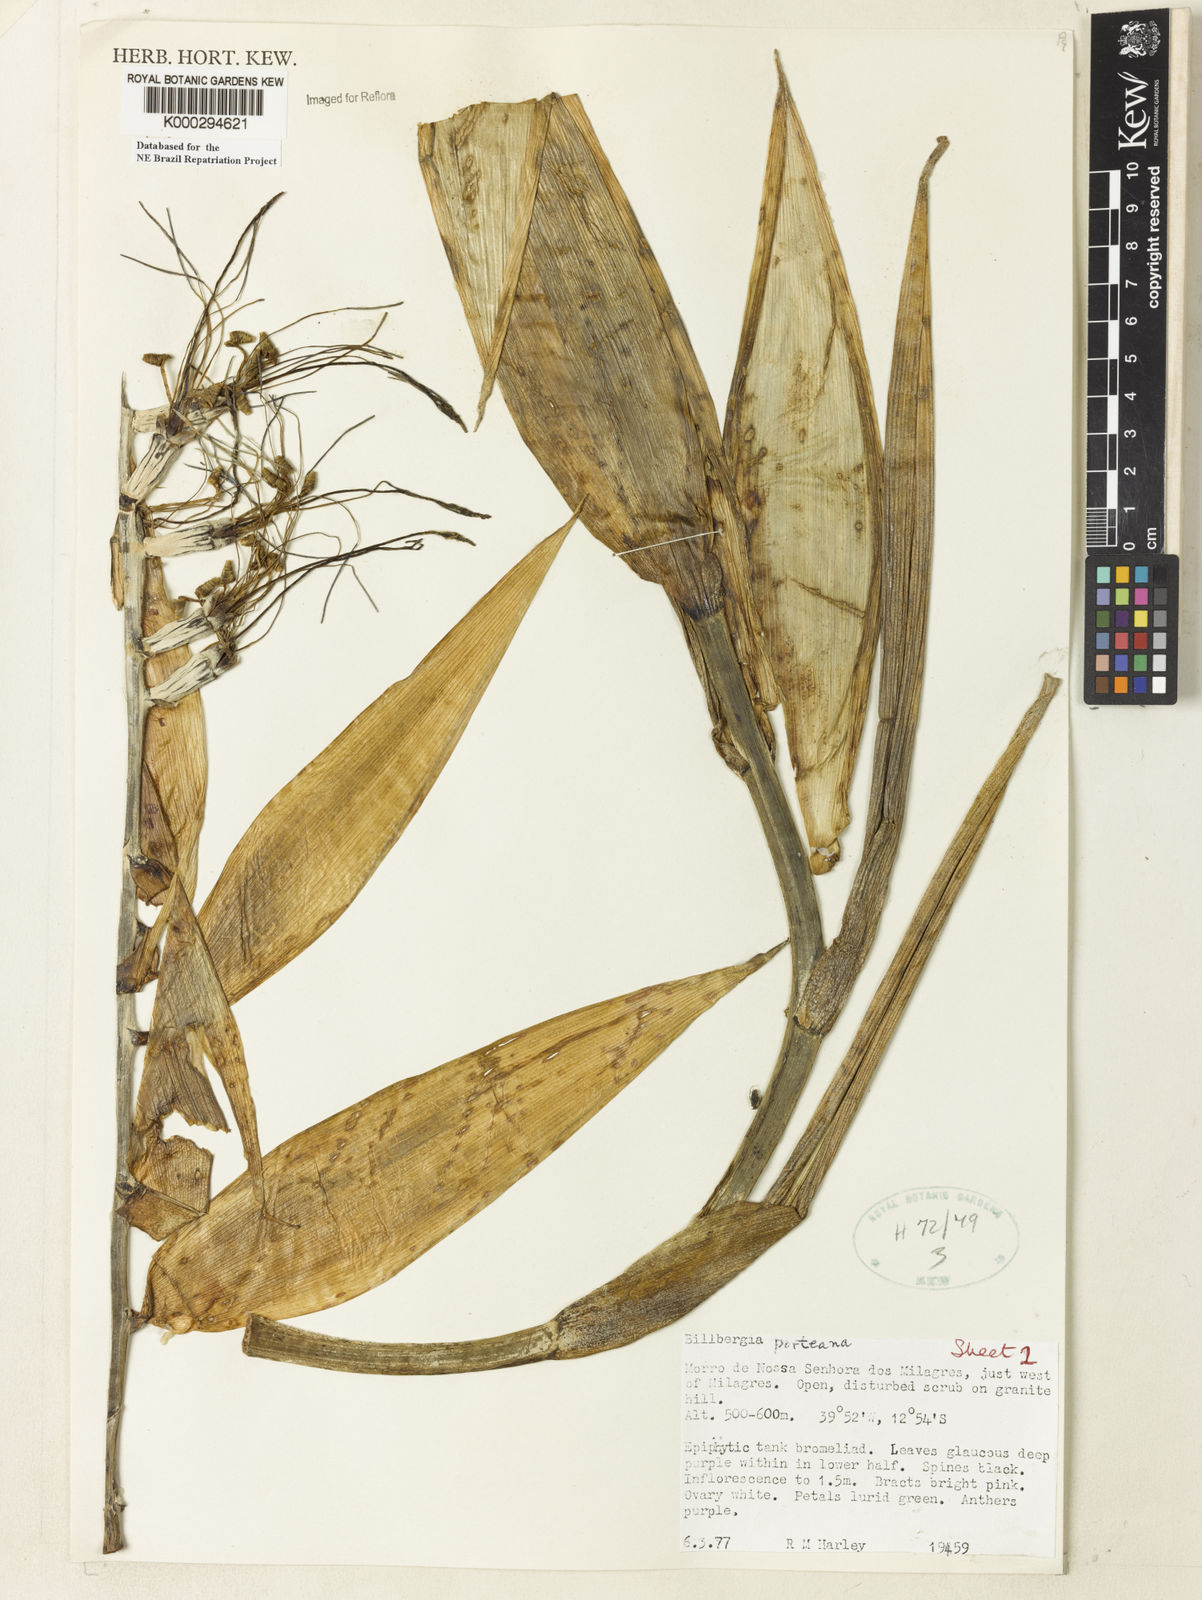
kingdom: Plantae
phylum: Tracheophyta
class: Liliopsida
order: Poales
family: Bromeliaceae
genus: Billbergia
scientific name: Billbergia porteana
